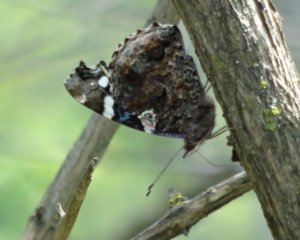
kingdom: Animalia
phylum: Arthropoda
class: Insecta
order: Lepidoptera
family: Nymphalidae
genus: Vanessa
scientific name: Vanessa atalanta
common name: Red Admiral
